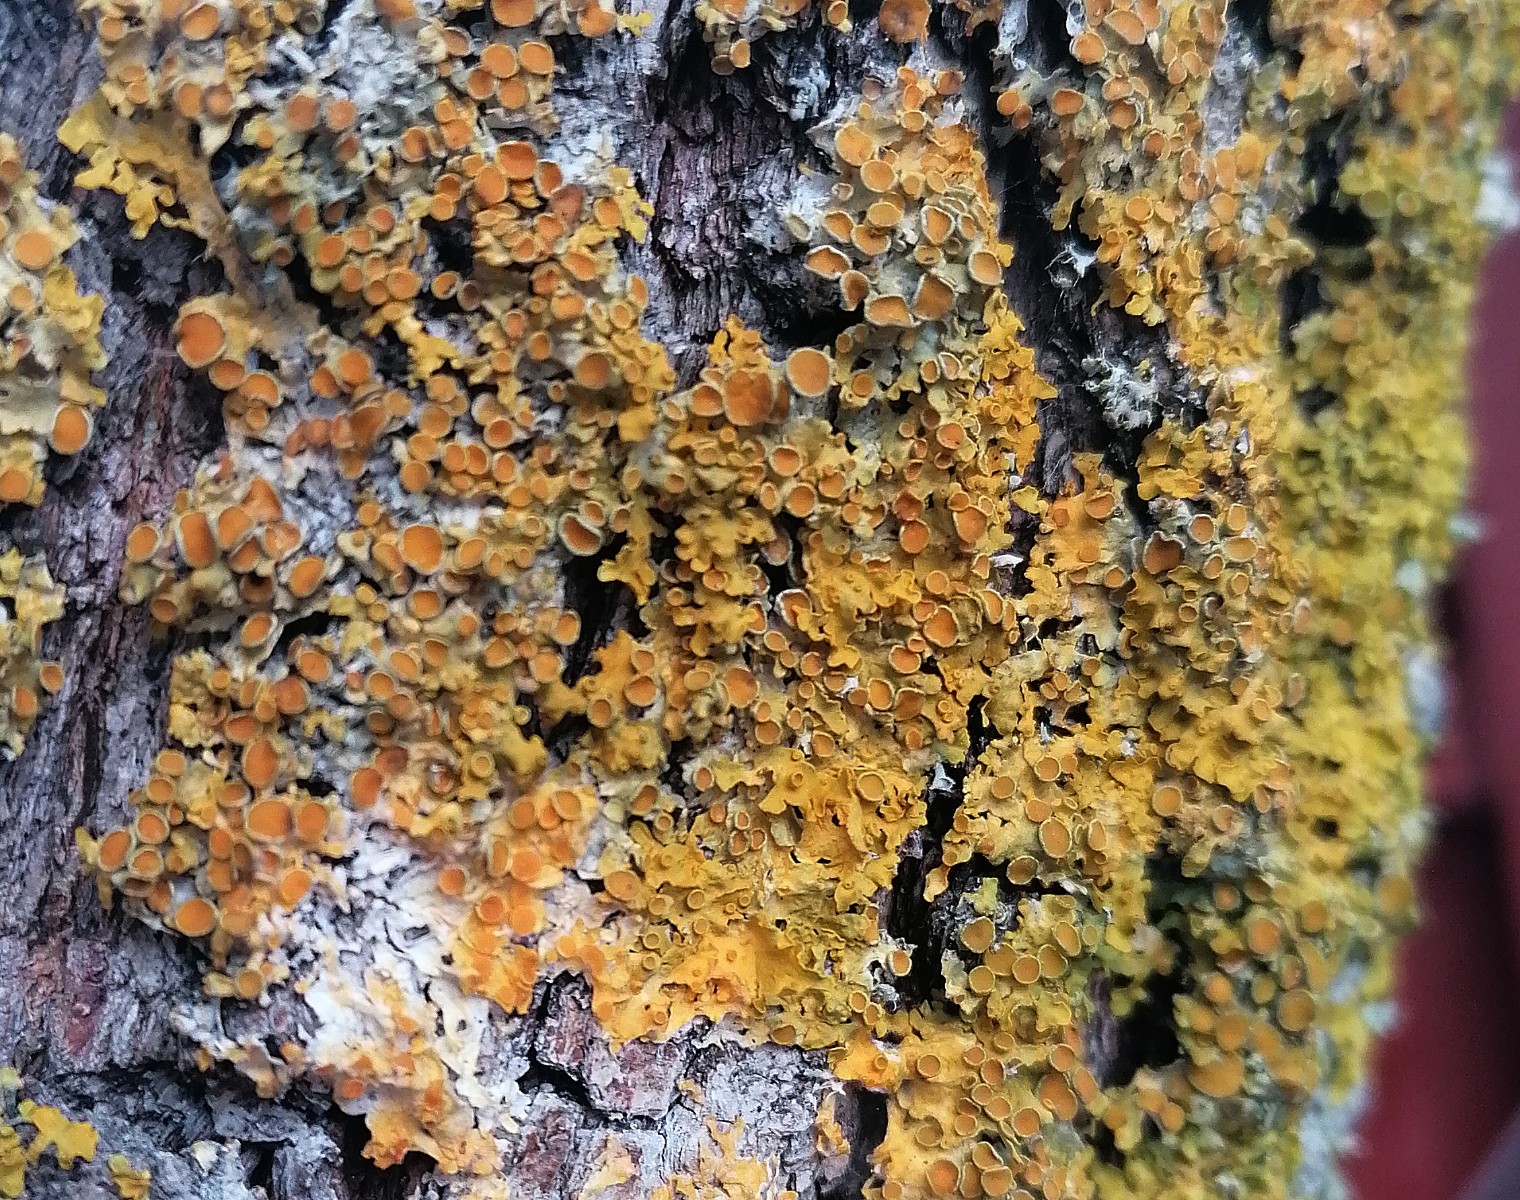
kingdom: Fungi
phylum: Ascomycota
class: Lecanoromycetes
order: Teloschistales
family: Teloschistaceae
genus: Xanthoria
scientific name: Xanthoria parietina
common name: almindelig væggelav
